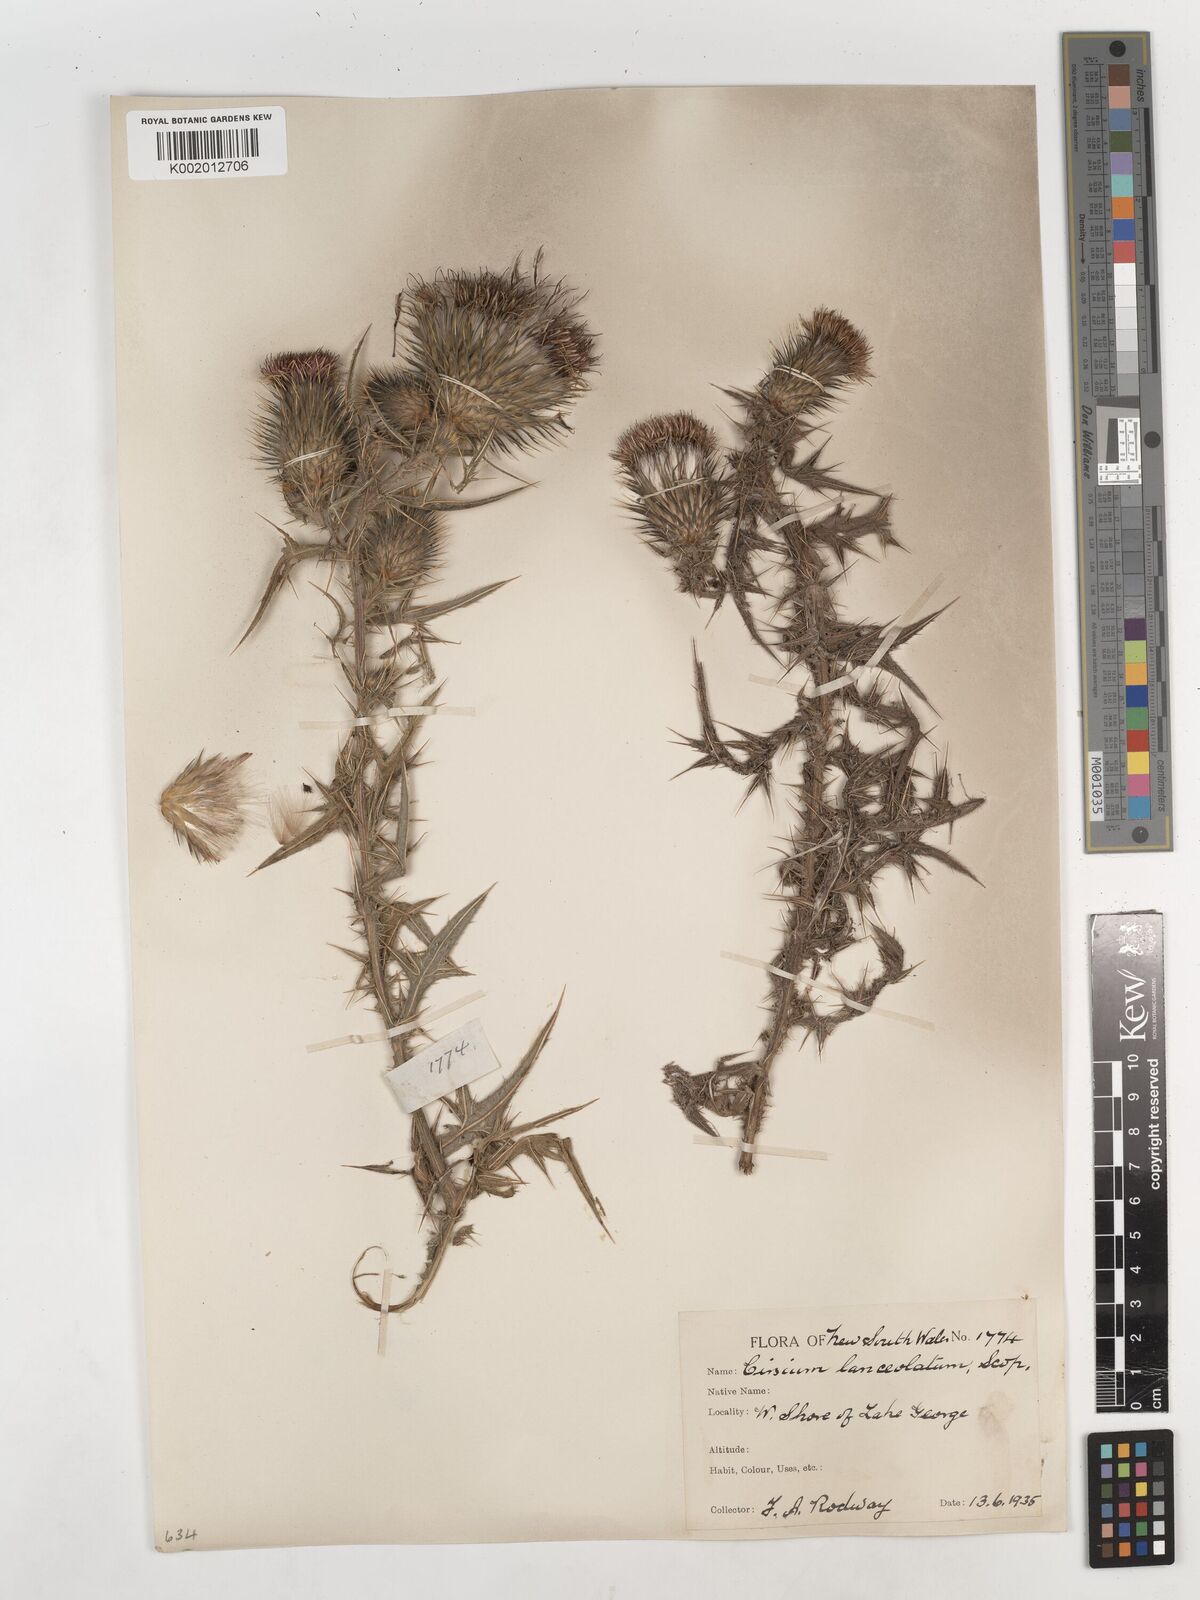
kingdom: Plantae
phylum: Tracheophyta
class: Magnoliopsida
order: Asterales
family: Asteraceae
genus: Cirsium
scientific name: Cirsium vulgare
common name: Bull thistle
